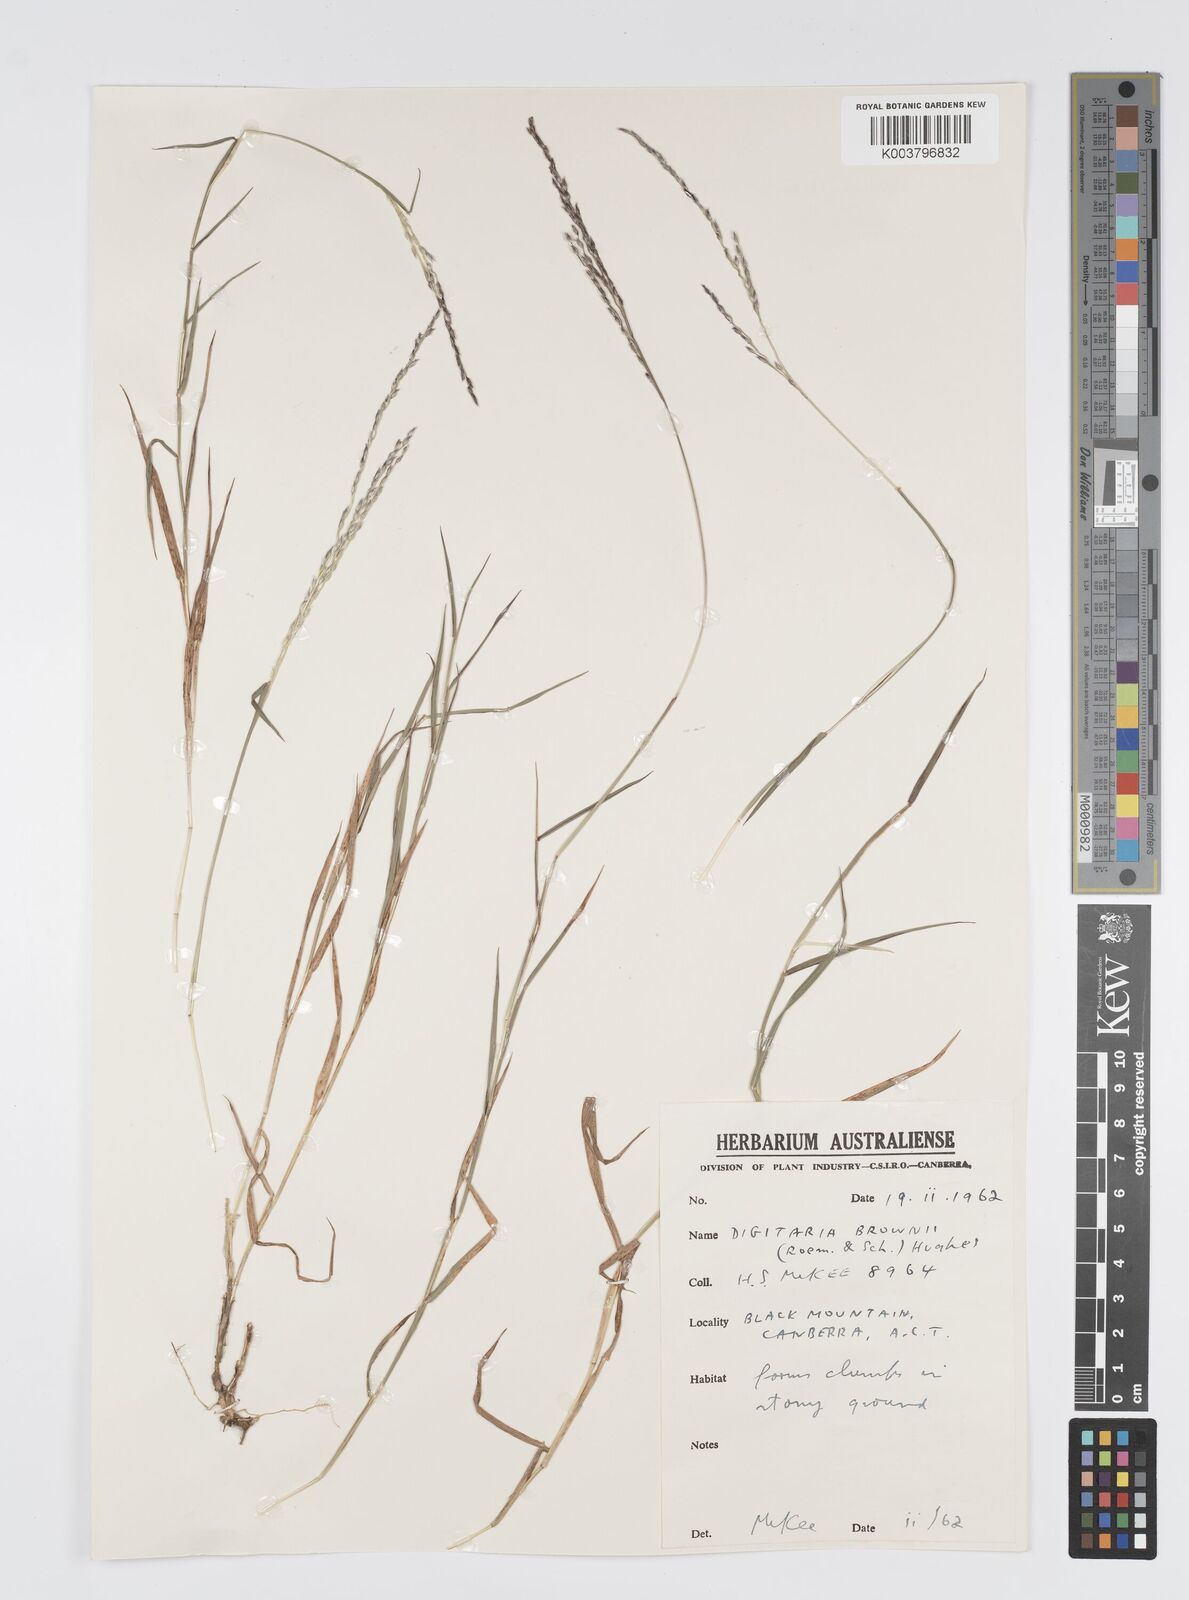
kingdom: Plantae
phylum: Tracheophyta
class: Liliopsida
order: Poales
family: Poaceae
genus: Digitaria
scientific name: Digitaria brownii
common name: Cotton grass
